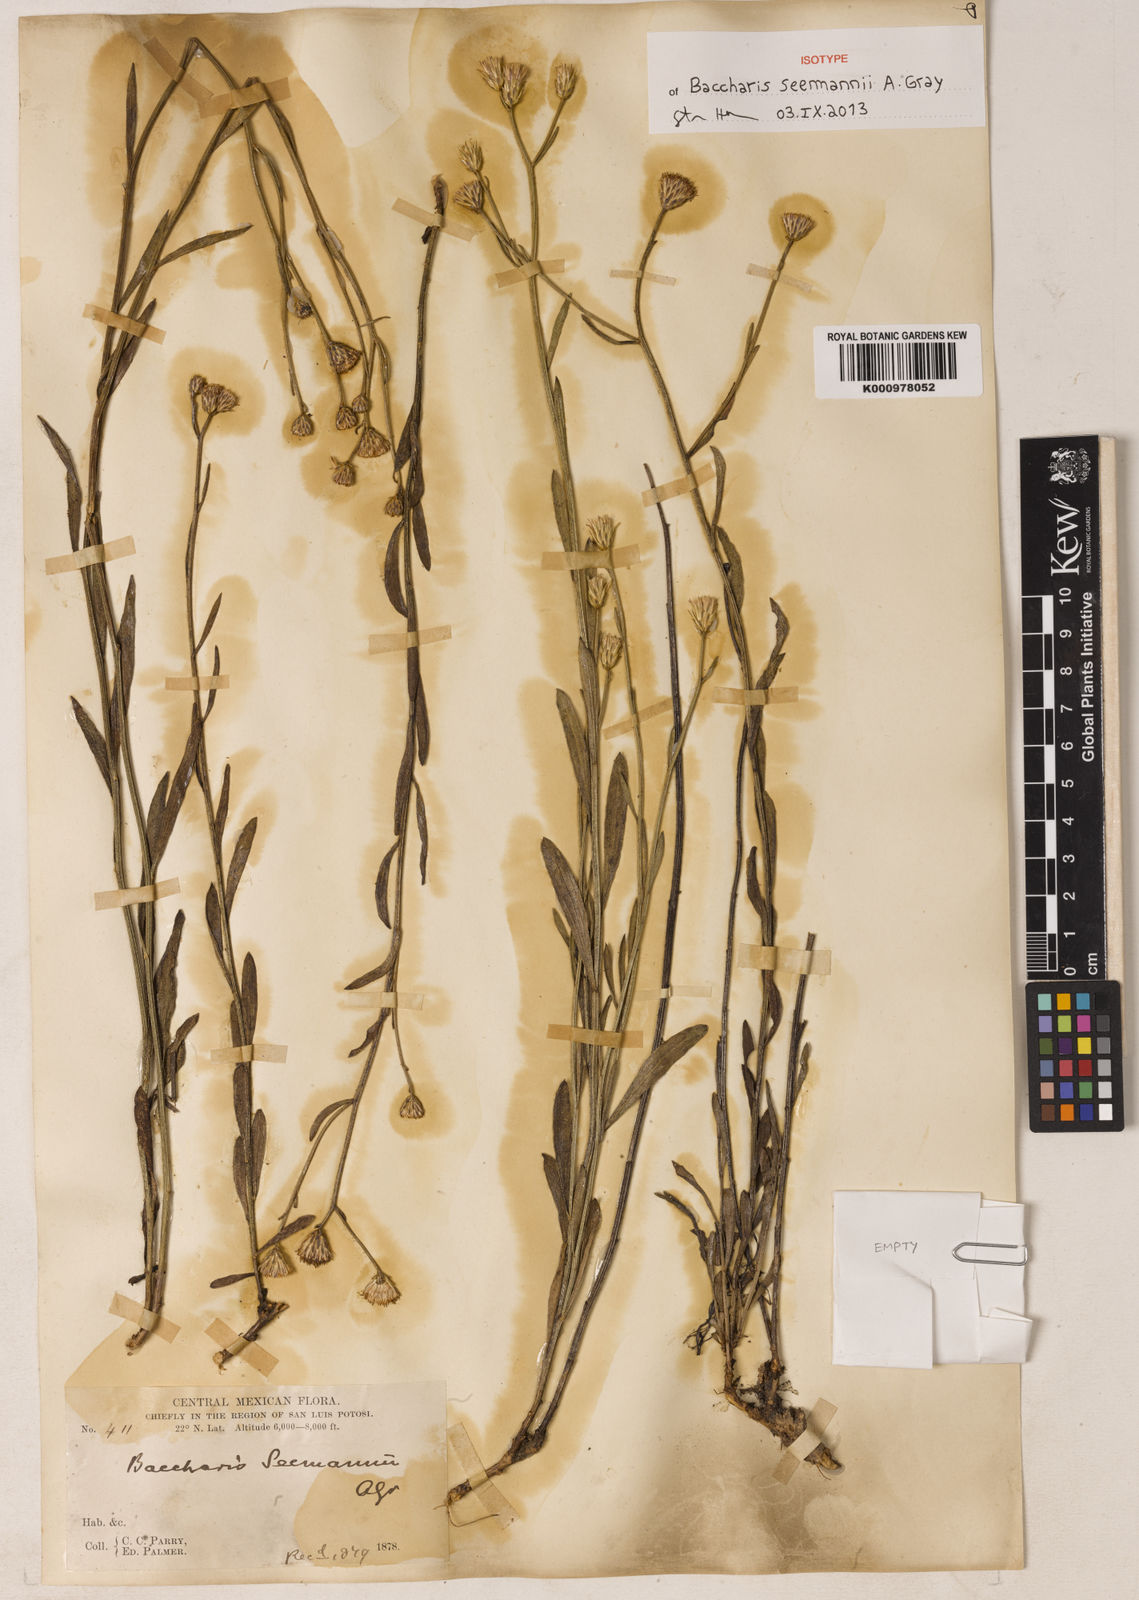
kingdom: Plantae
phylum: Tracheophyta
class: Magnoliopsida
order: Asterales
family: Asteraceae
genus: Baccharis
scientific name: Baccharis patens
